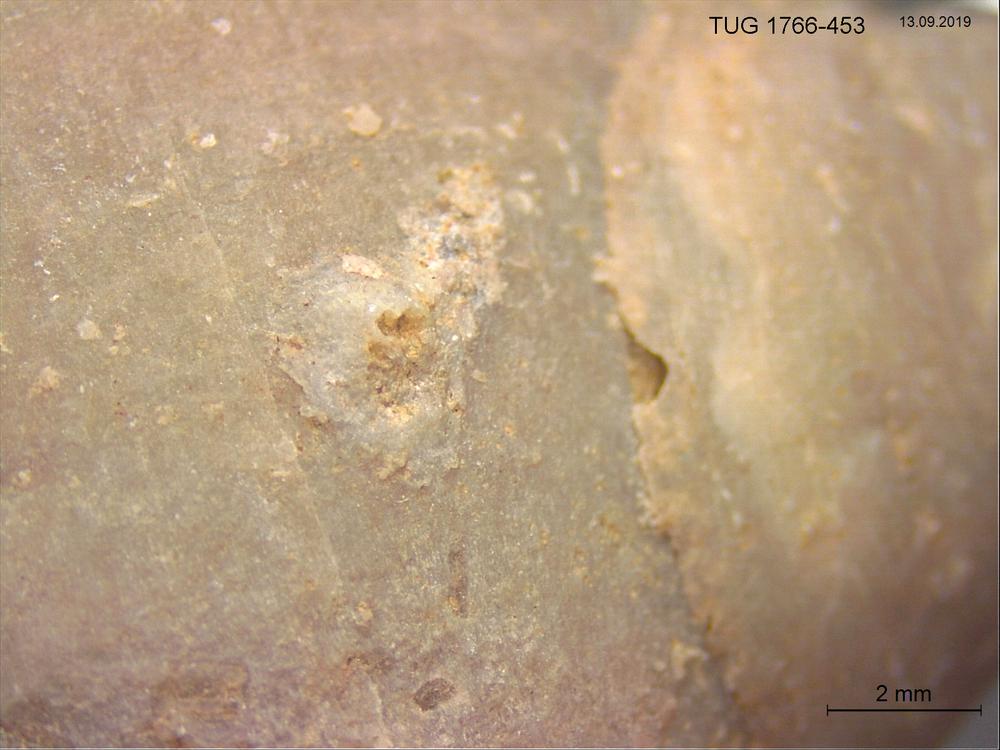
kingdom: Animalia
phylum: Bryozoa
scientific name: Bryozoa
